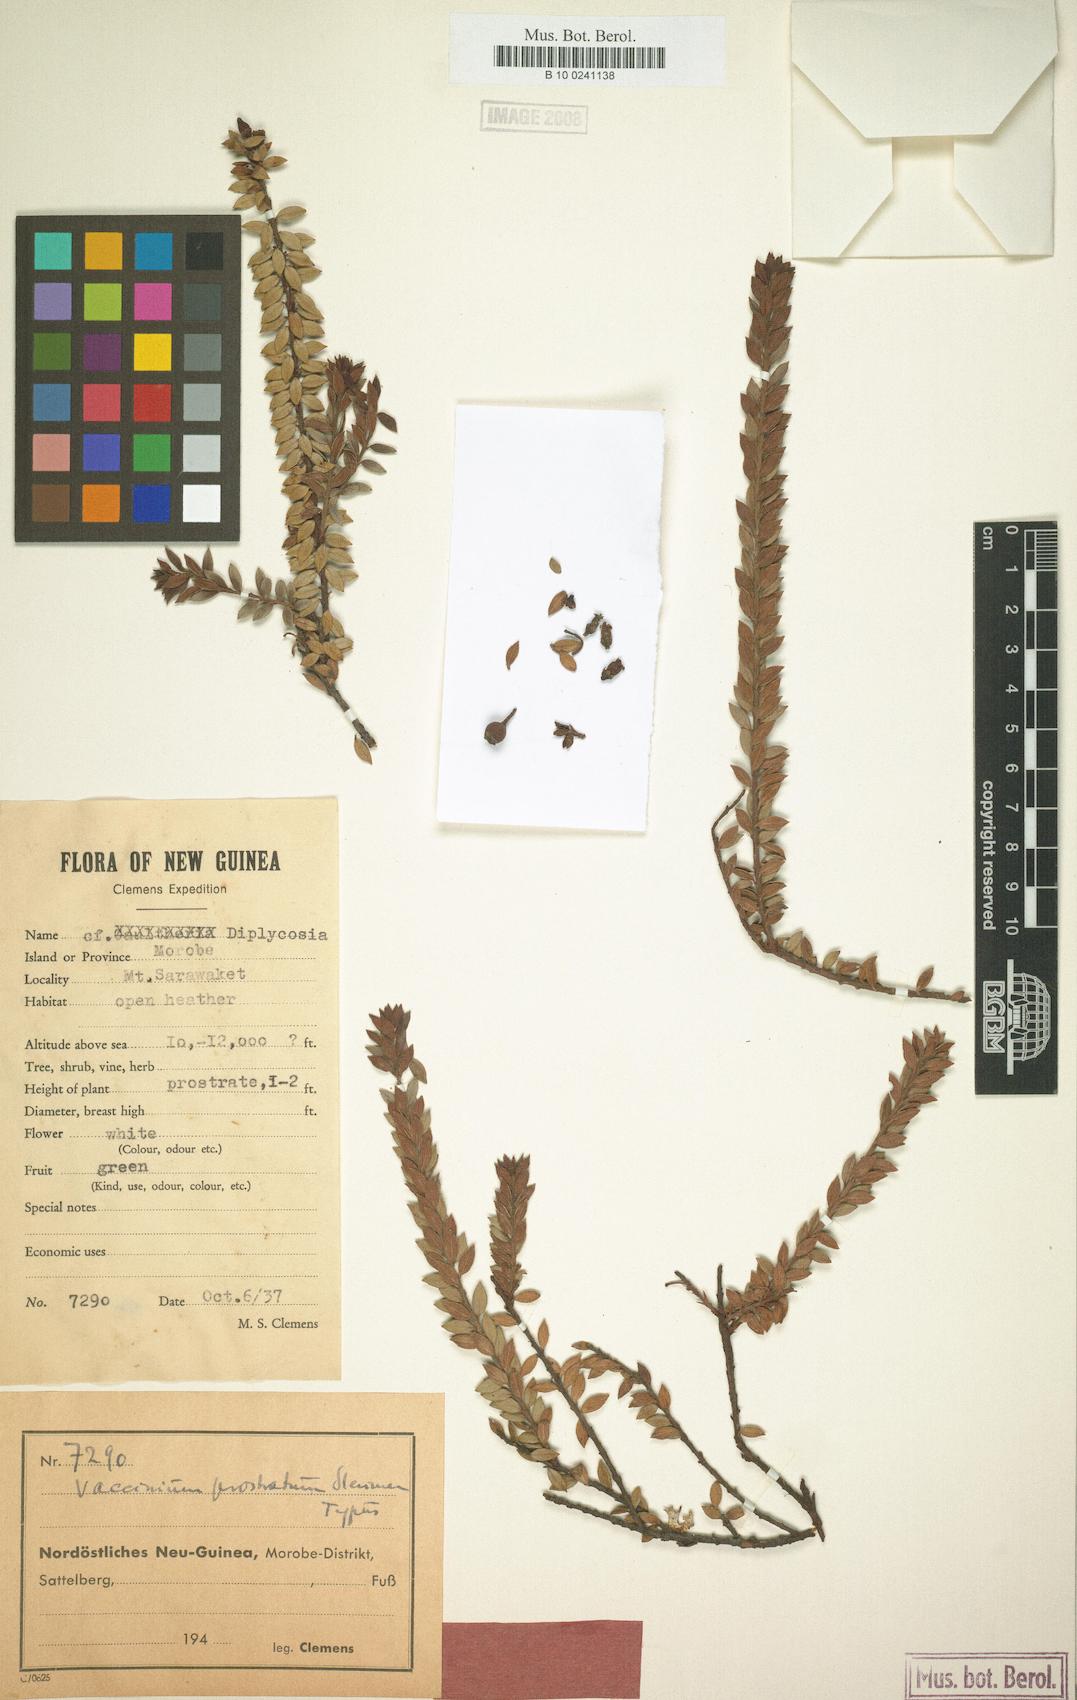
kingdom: Plantae
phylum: Tracheophyta
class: Magnoliopsida
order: Ericales
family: Ericaceae
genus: Vaccinium
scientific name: Vaccinium prostratum
